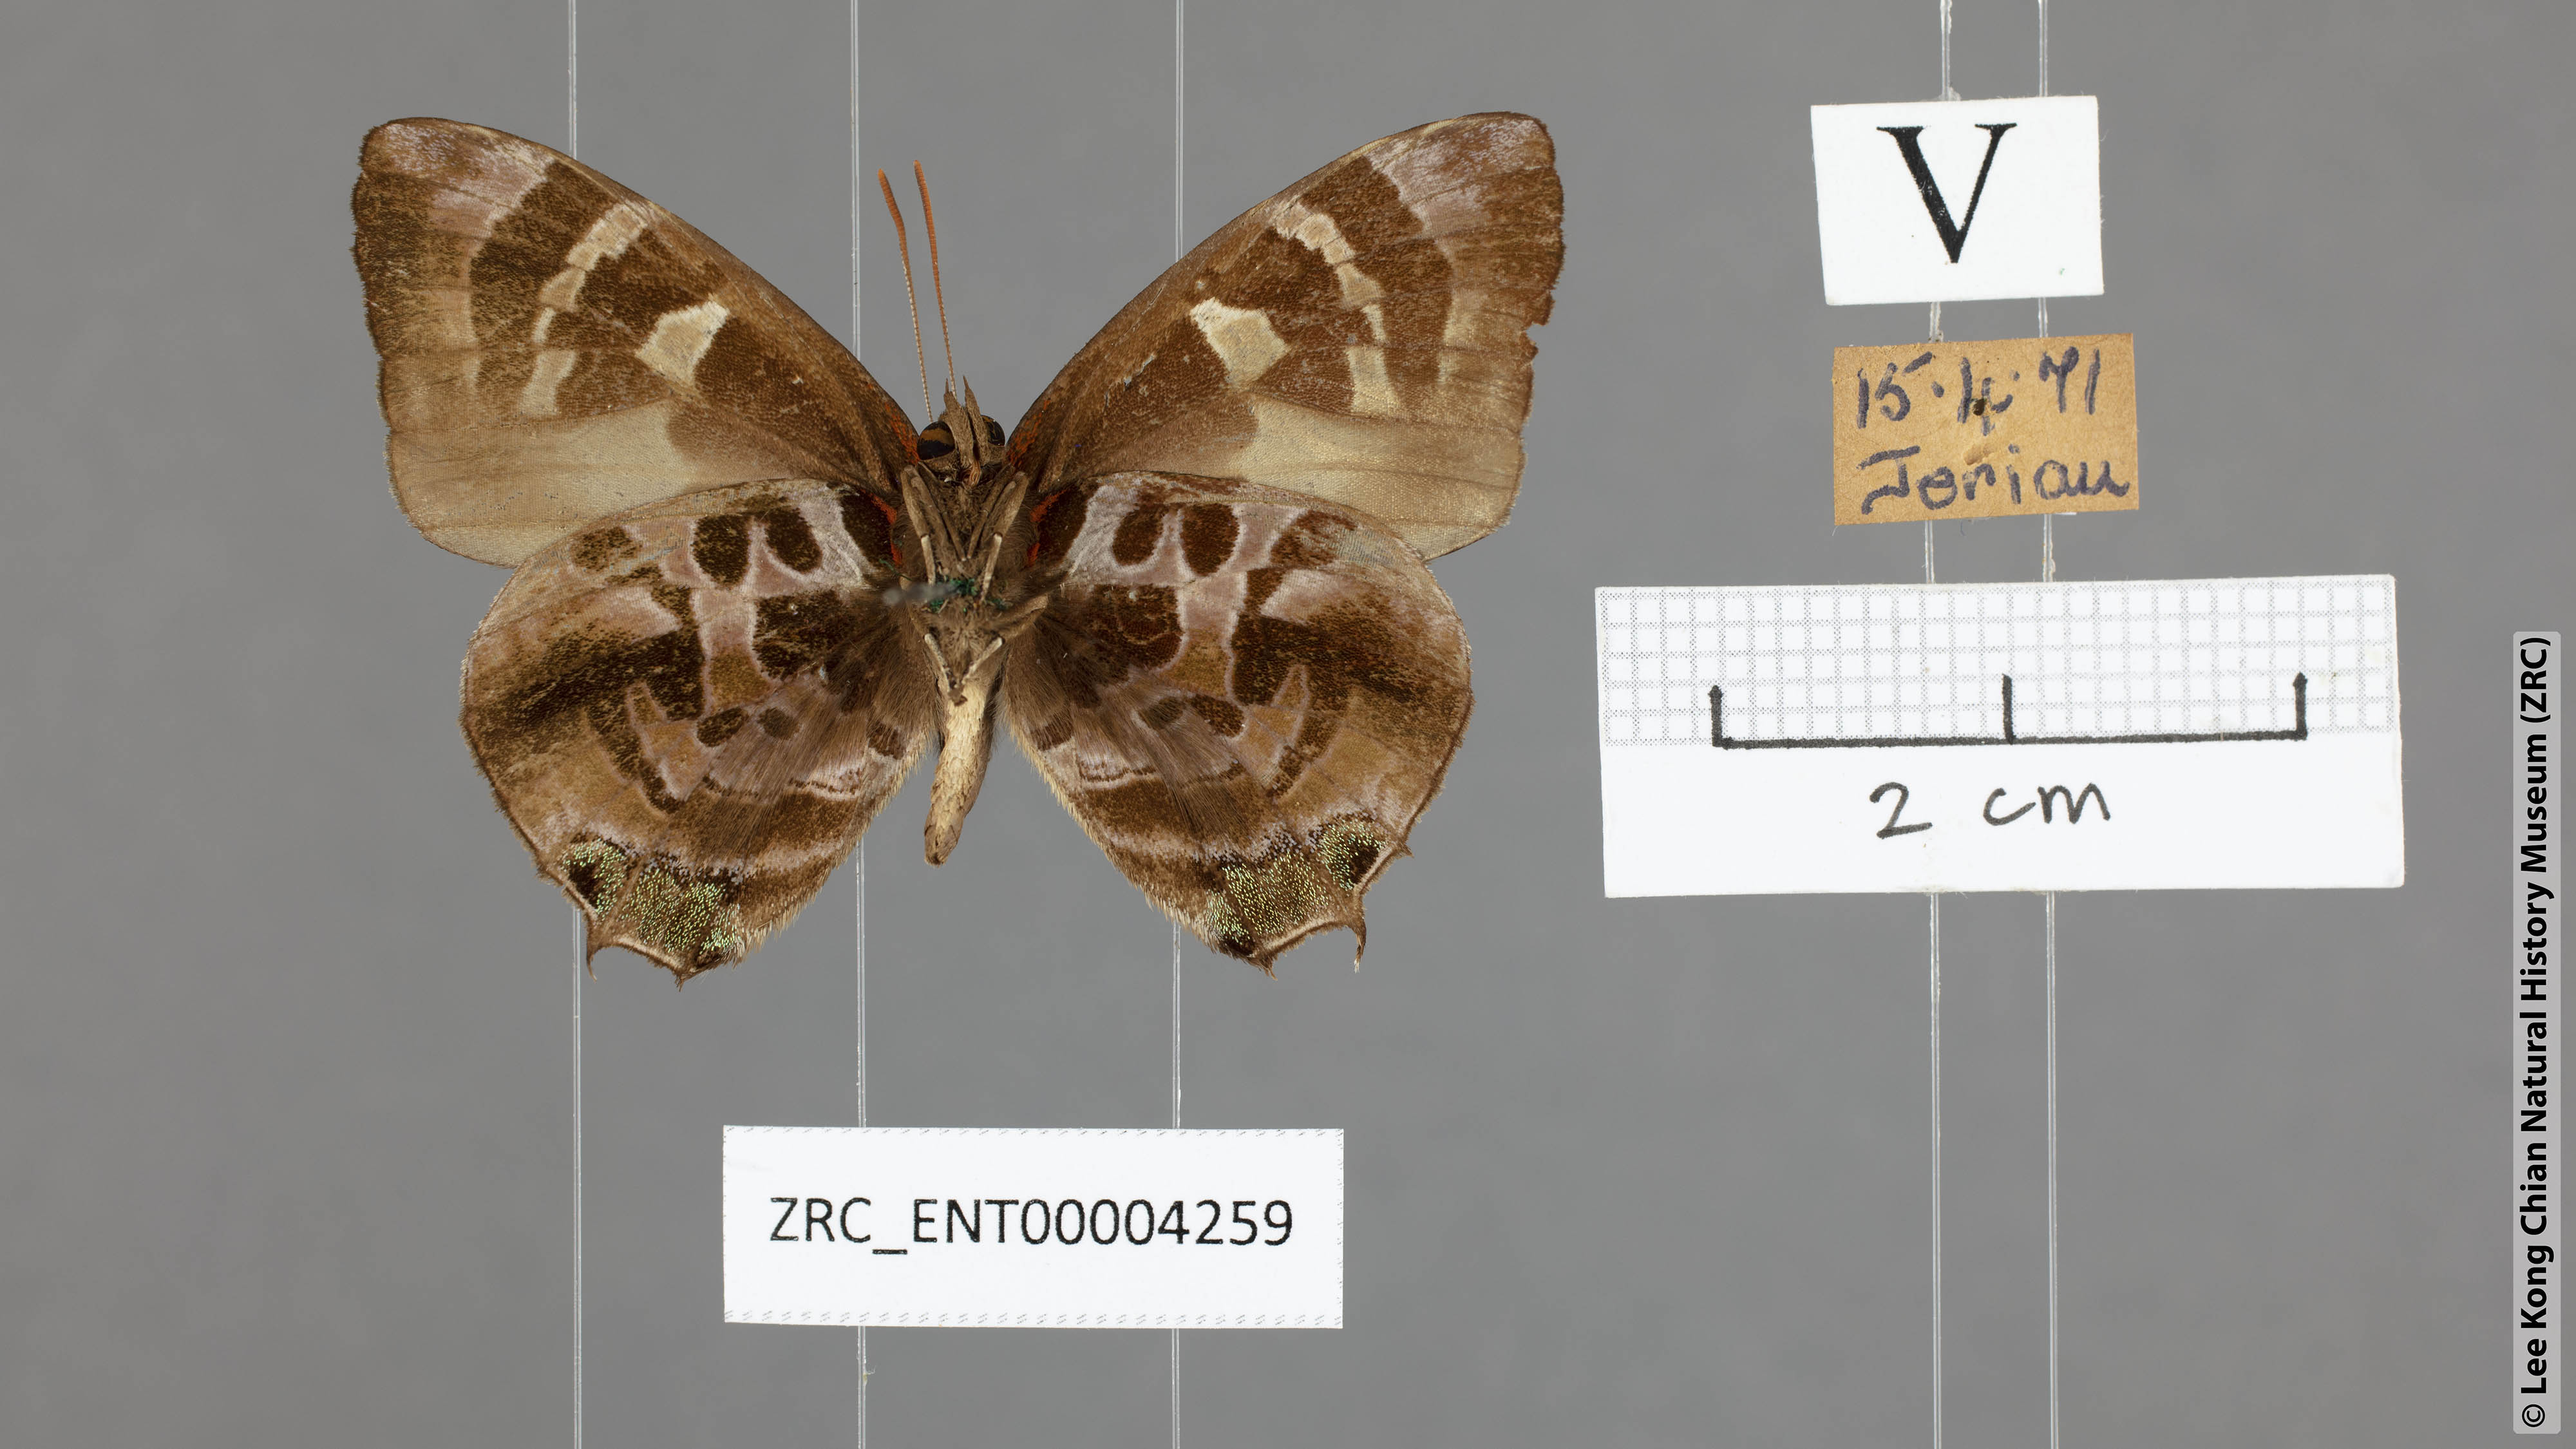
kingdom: Animalia
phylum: Arthropoda
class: Insecta
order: Lepidoptera
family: Lycaenidae
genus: Flos
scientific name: Flos
